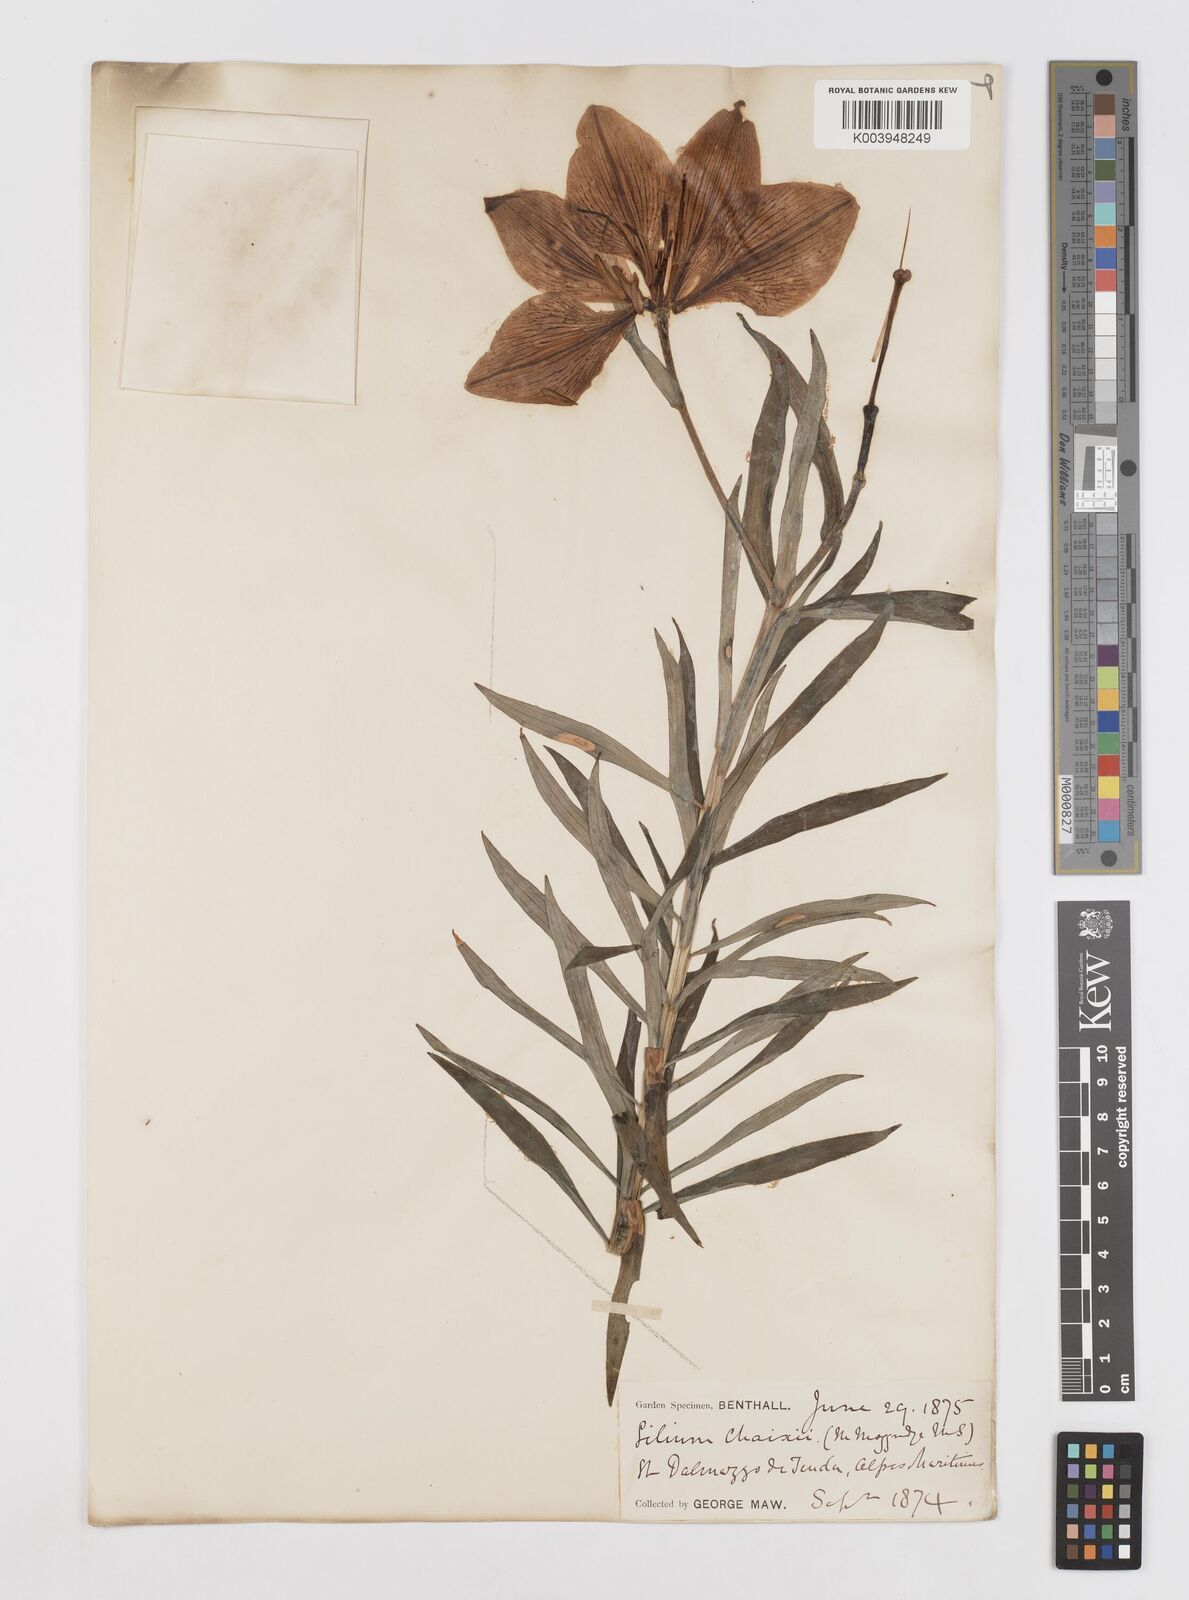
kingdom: Plantae
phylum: Tracheophyta
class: Liliopsida
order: Liliales
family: Liliaceae
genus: Lilium
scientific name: Lilium bulbiferum
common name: Orange lily
